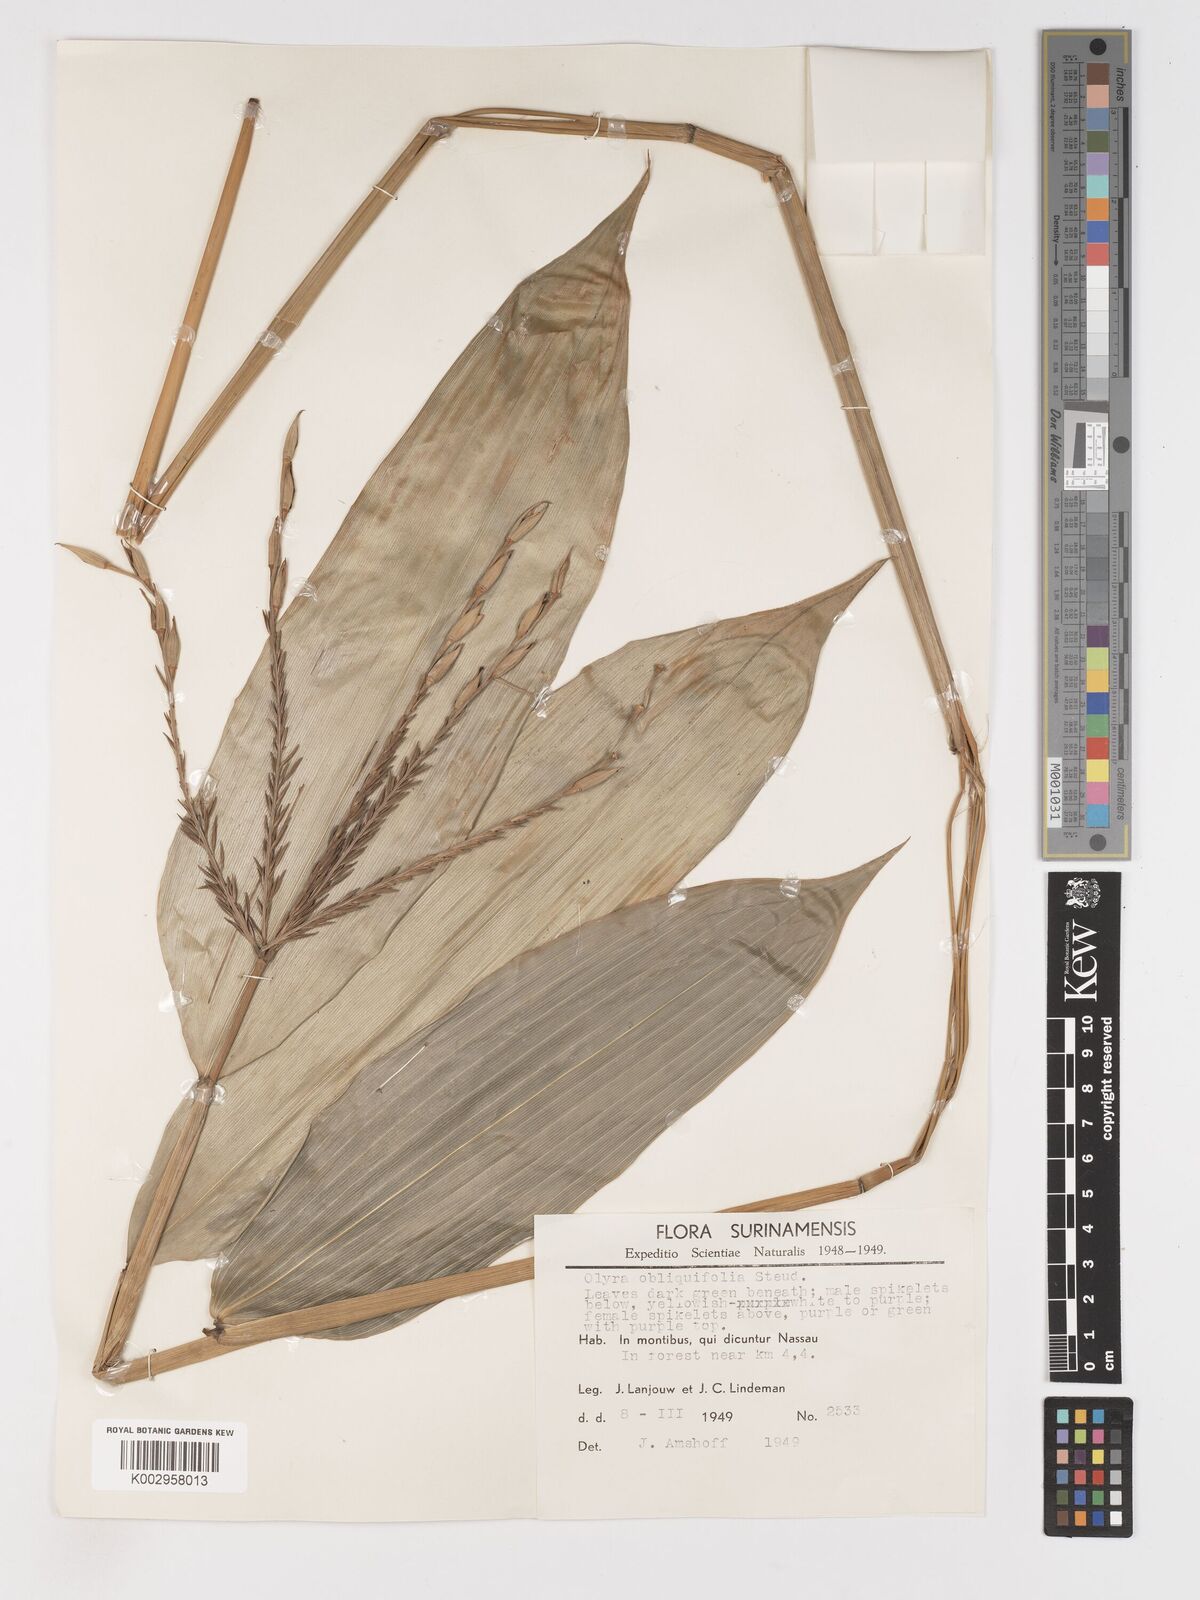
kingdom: Plantae
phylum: Tracheophyta
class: Liliopsida
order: Poales
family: Poaceae
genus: Olyra
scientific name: Olyra obliquifolia
